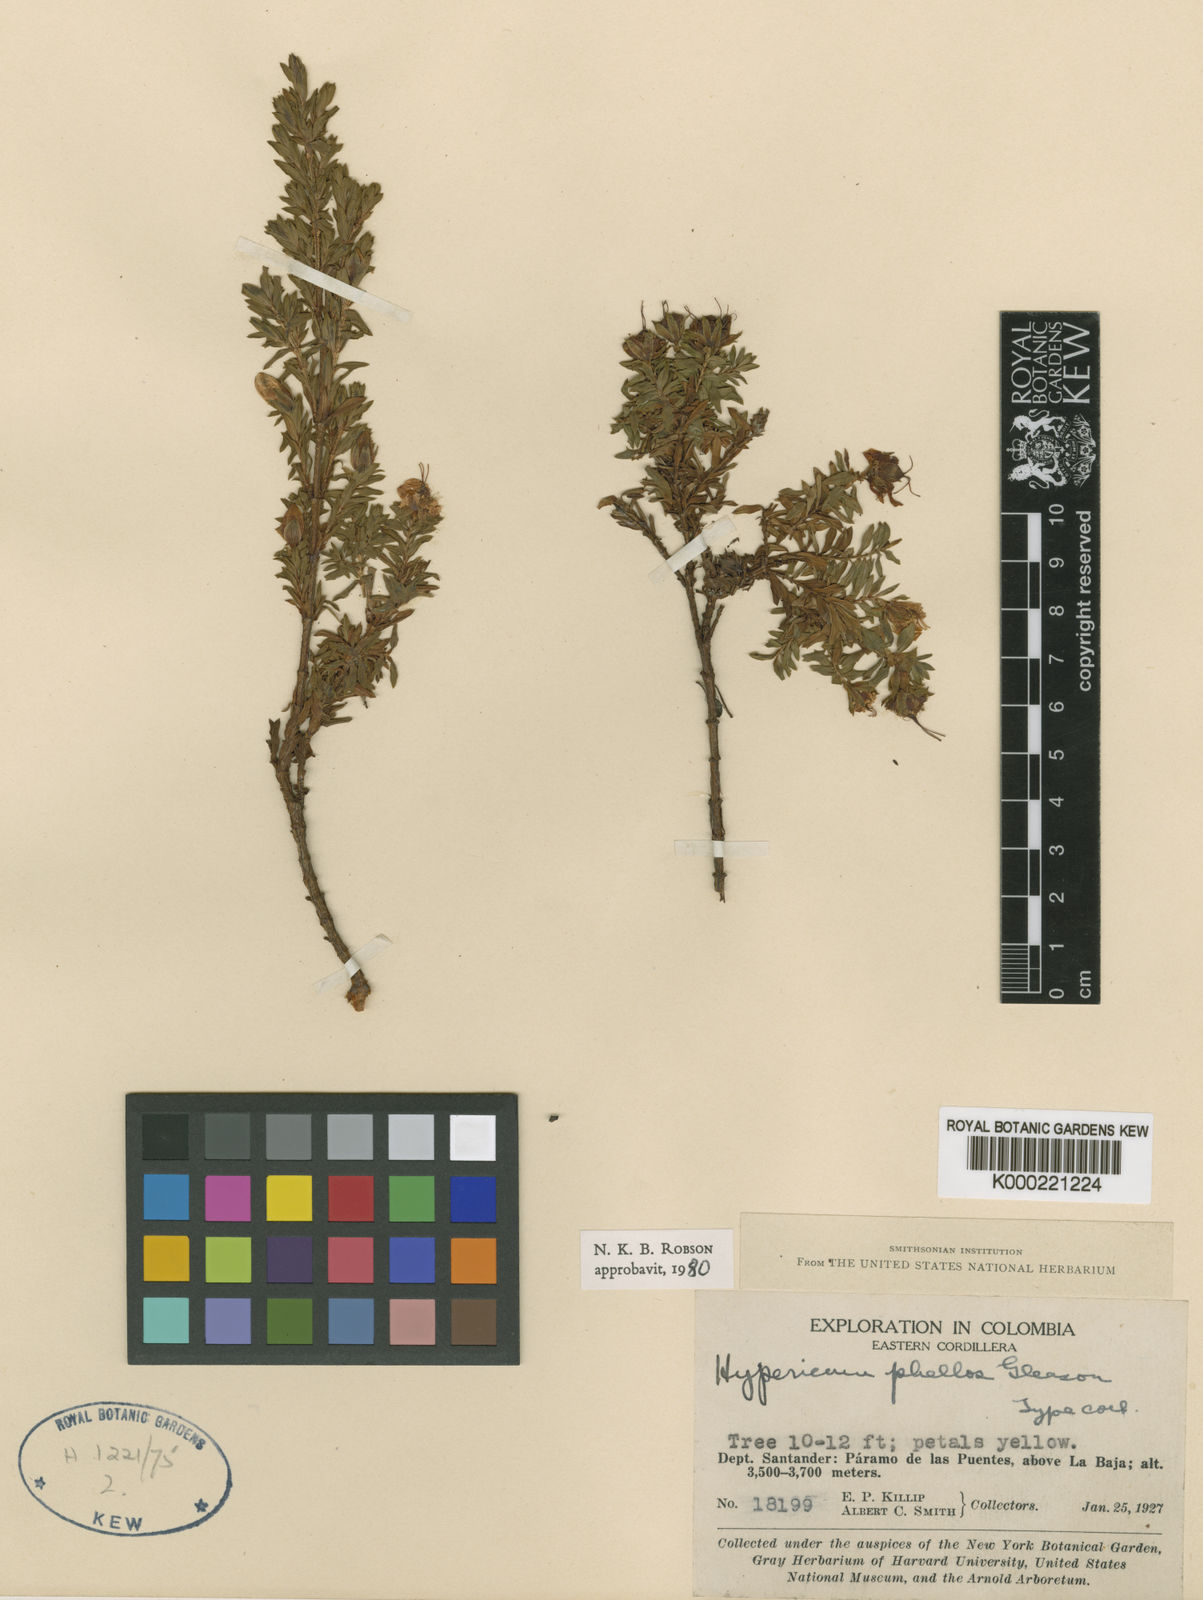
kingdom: Plantae
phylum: Tracheophyta
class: Magnoliopsida
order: Malpighiales
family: Hypericaceae
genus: Hypericum
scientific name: Hypericum phellos
